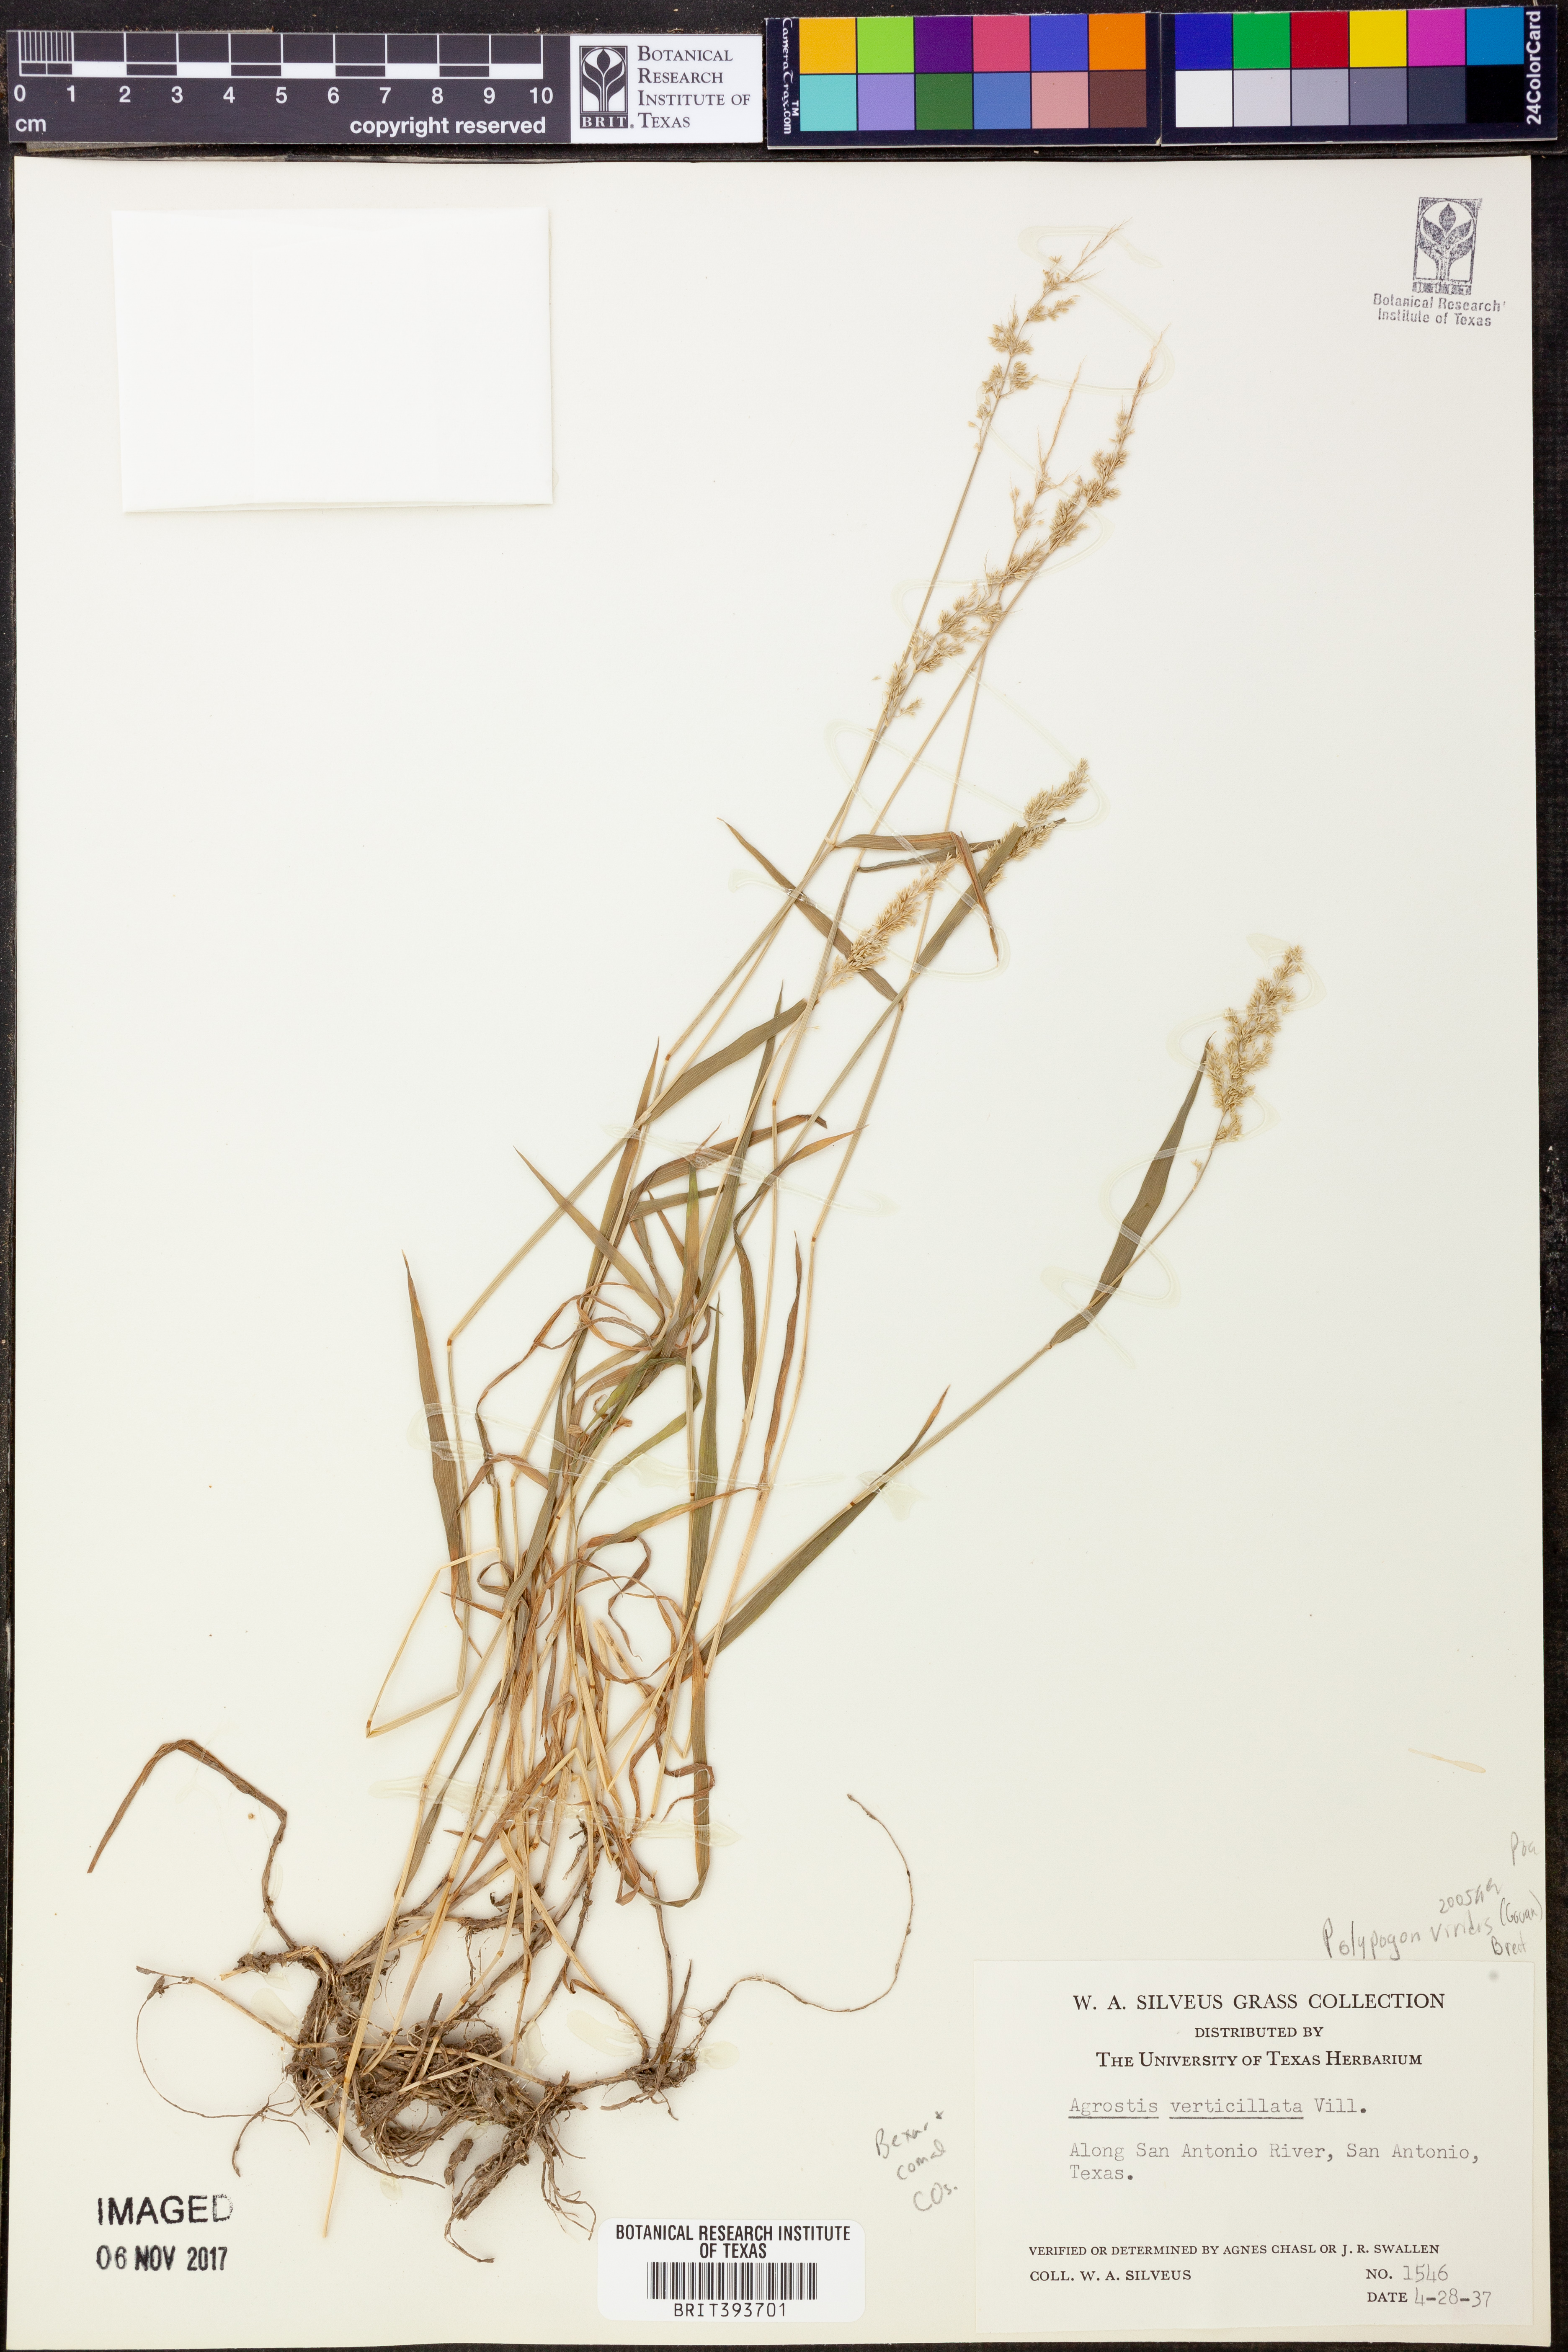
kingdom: Plantae
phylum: Tracheophyta
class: Liliopsida
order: Poales
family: Poaceae
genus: Polypogon
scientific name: Polypogon viridis
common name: Water bent
